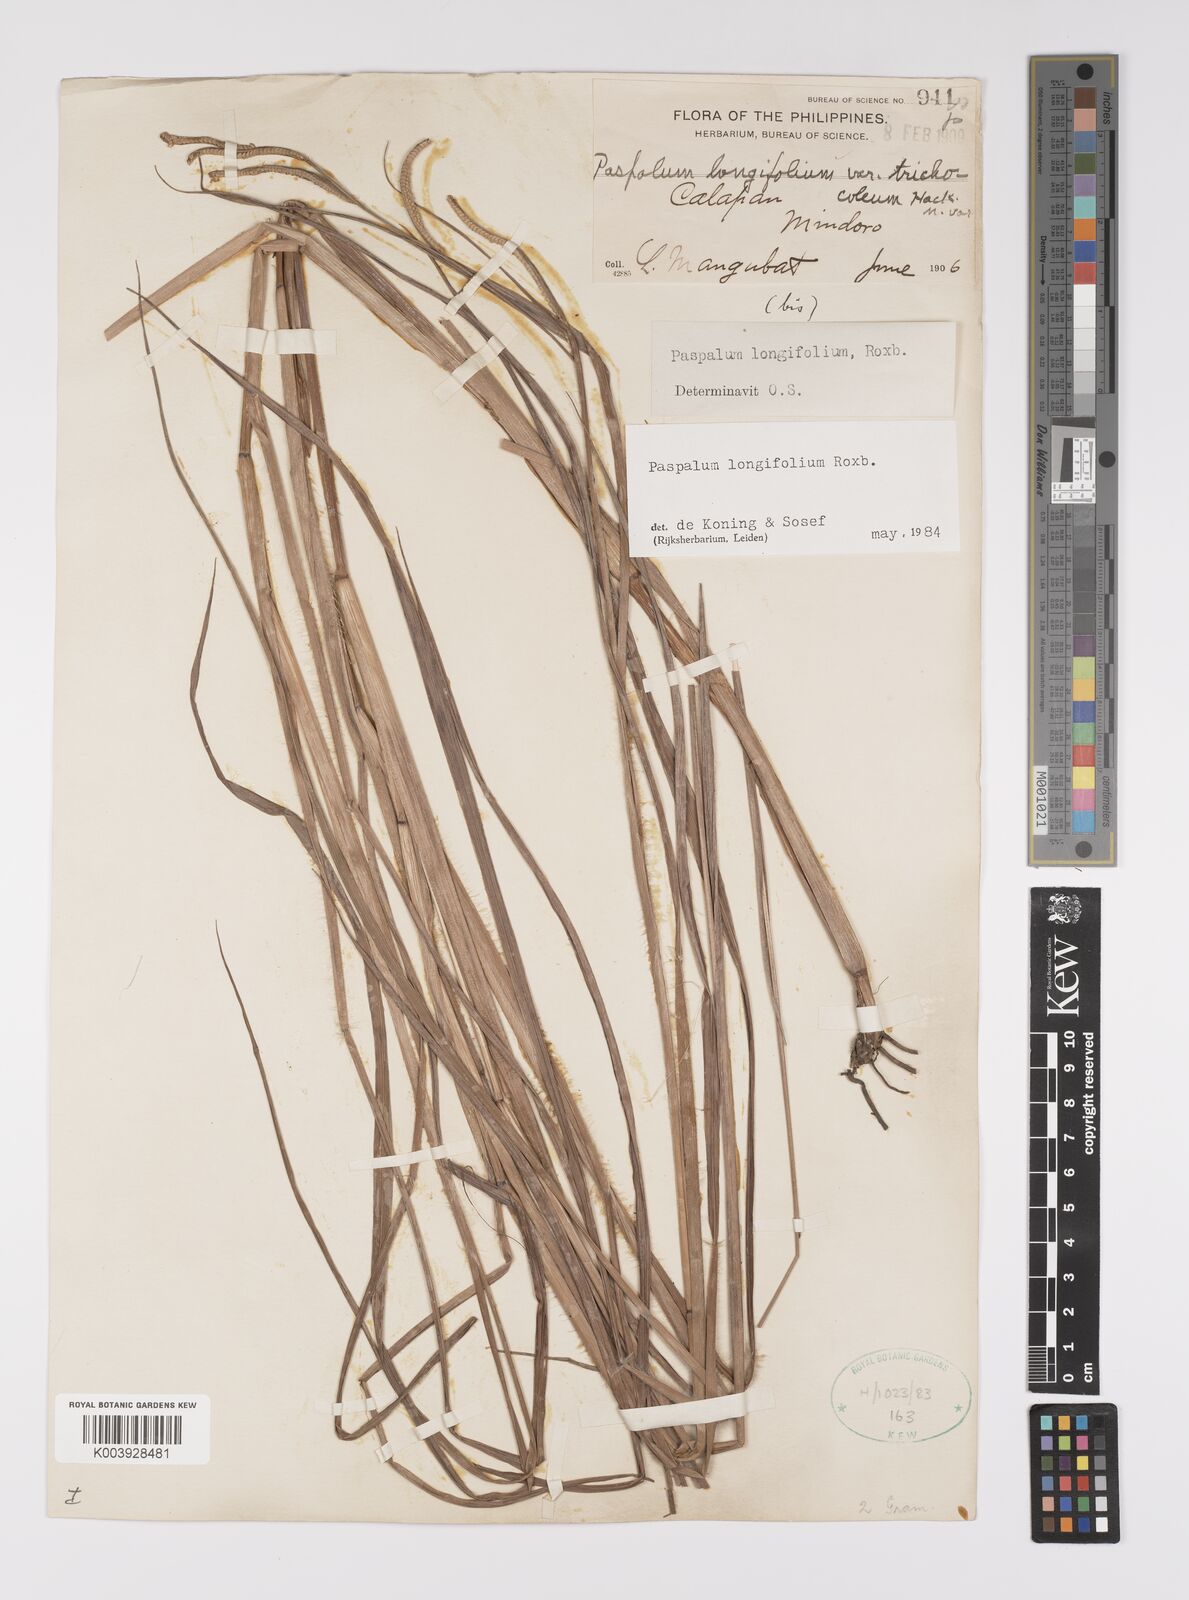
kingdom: Plantae
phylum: Tracheophyta
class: Liliopsida
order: Poales
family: Poaceae
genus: Paspalum
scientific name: Paspalum sumatrense
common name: Long-leaved paspalum
